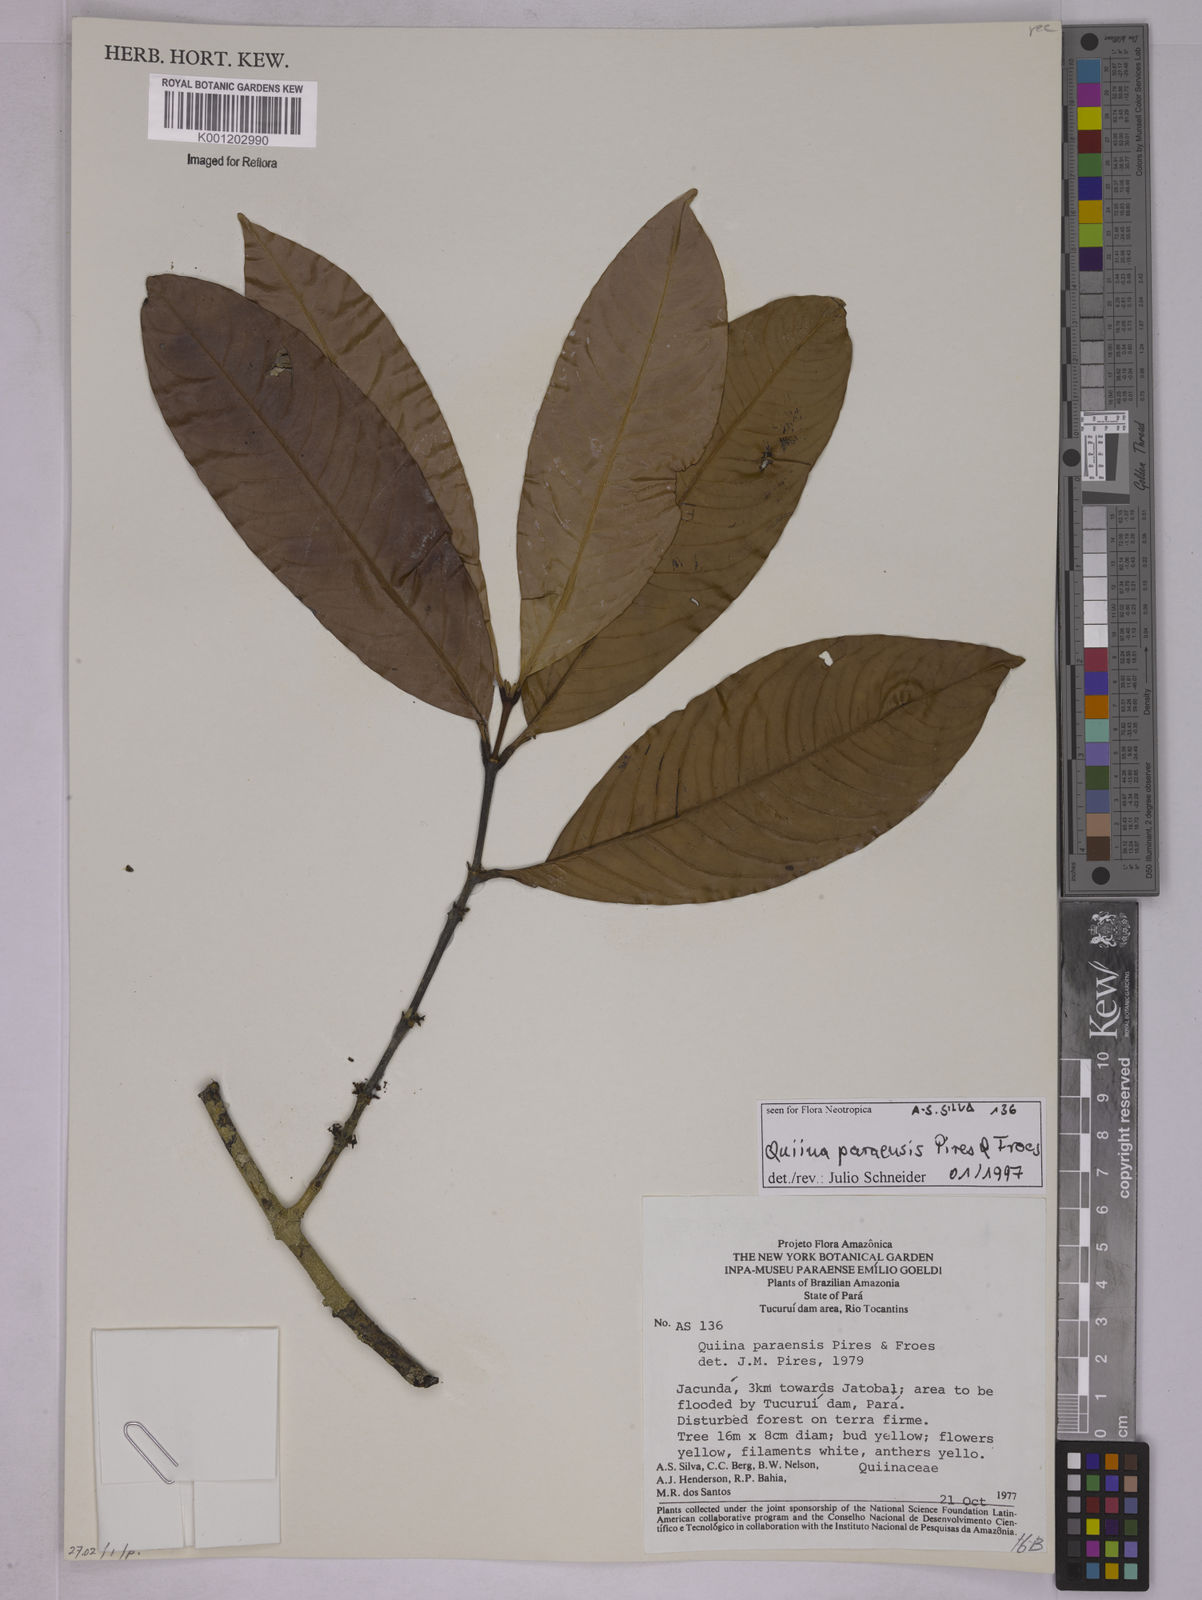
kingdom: Plantae
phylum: Tracheophyta
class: Magnoliopsida
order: Malpighiales
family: Quiinaceae
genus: Quiina
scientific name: Quiina paraensis
